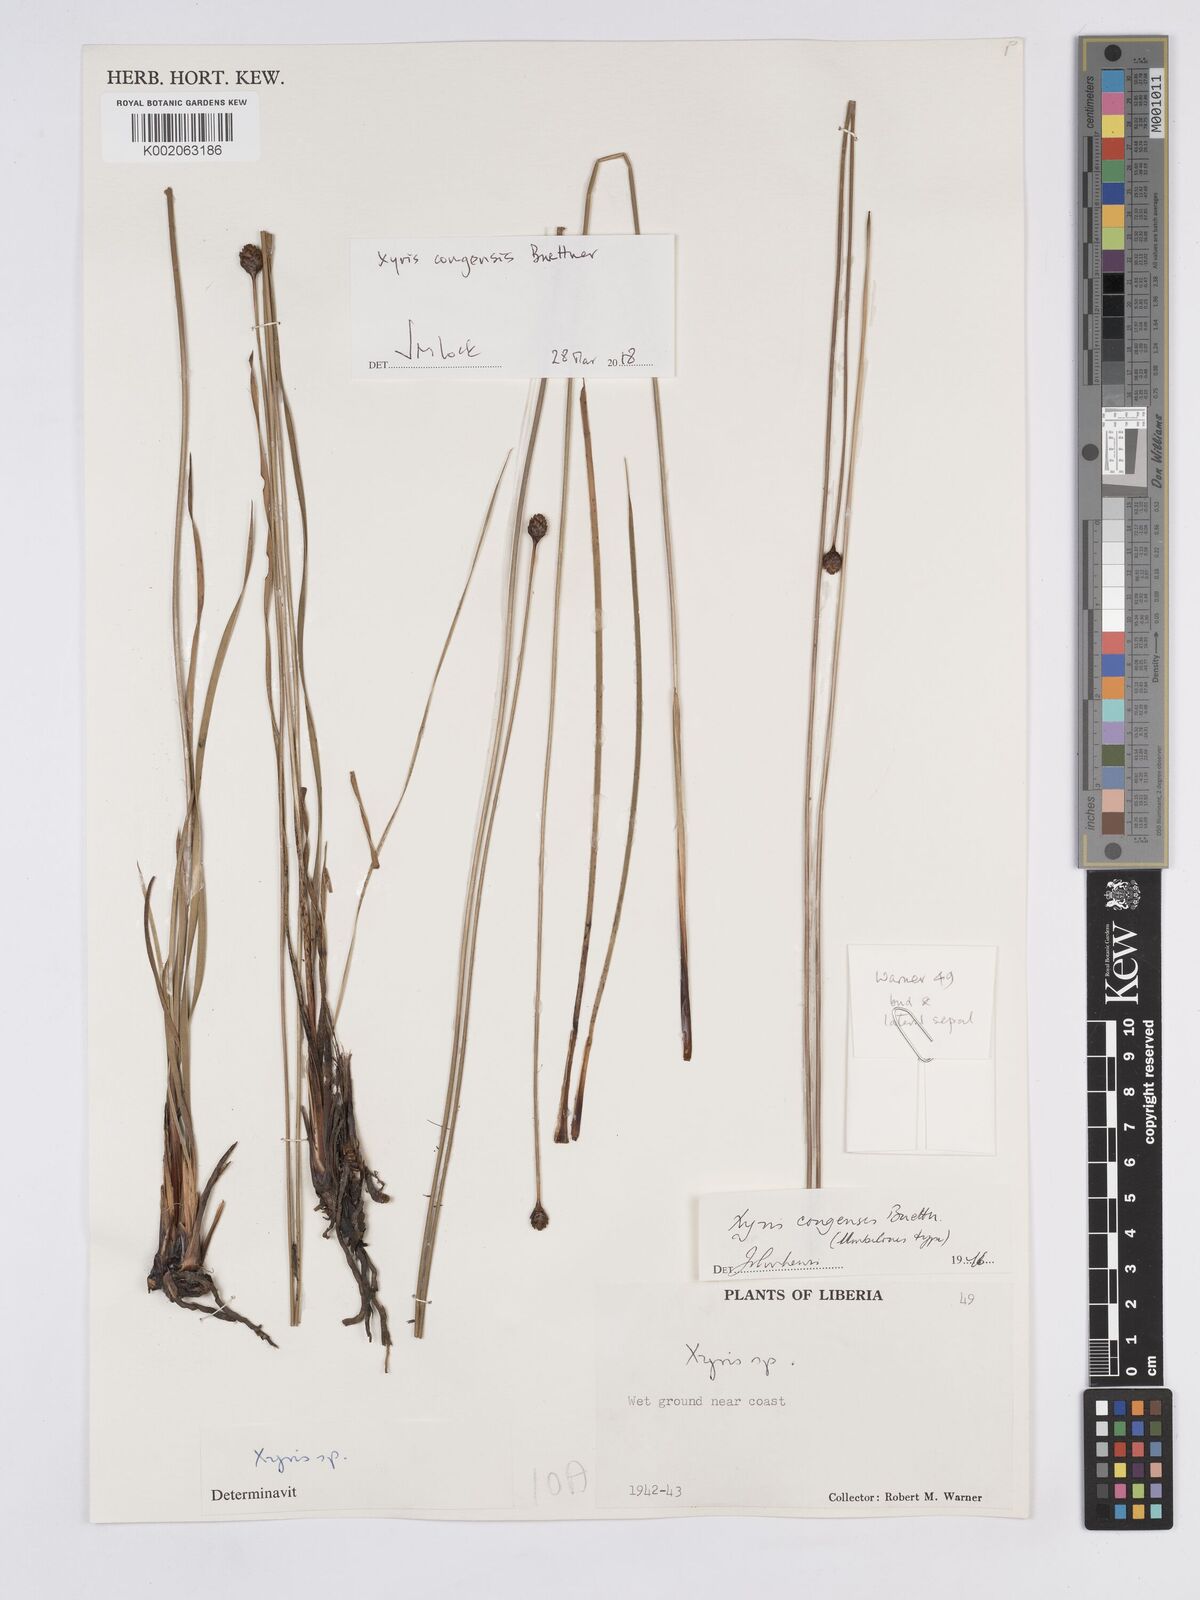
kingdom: Plantae
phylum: Tracheophyta
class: Liliopsida
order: Poales
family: Xyridaceae
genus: Xyris
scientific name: Xyris congensis
